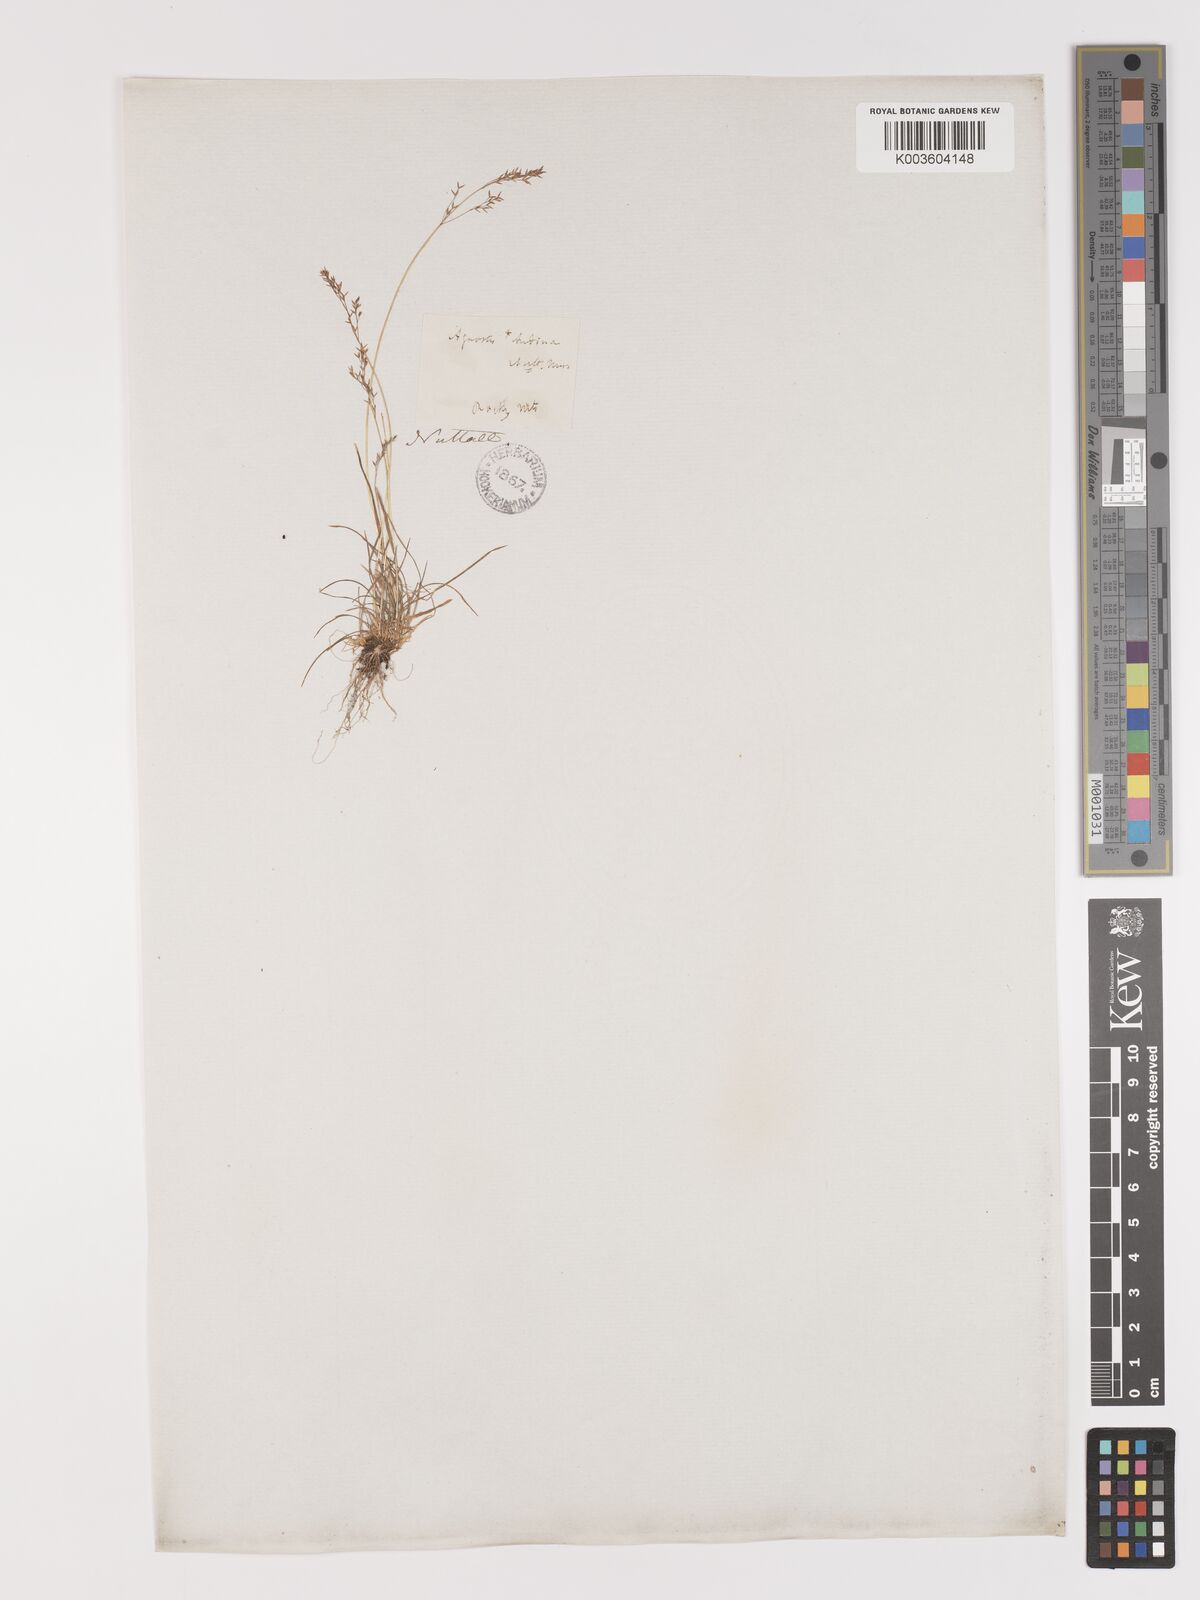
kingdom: Plantae
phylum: Tracheophyta
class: Liliopsida
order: Poales
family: Poaceae
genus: Agrostis
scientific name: Agrostis rossiae
